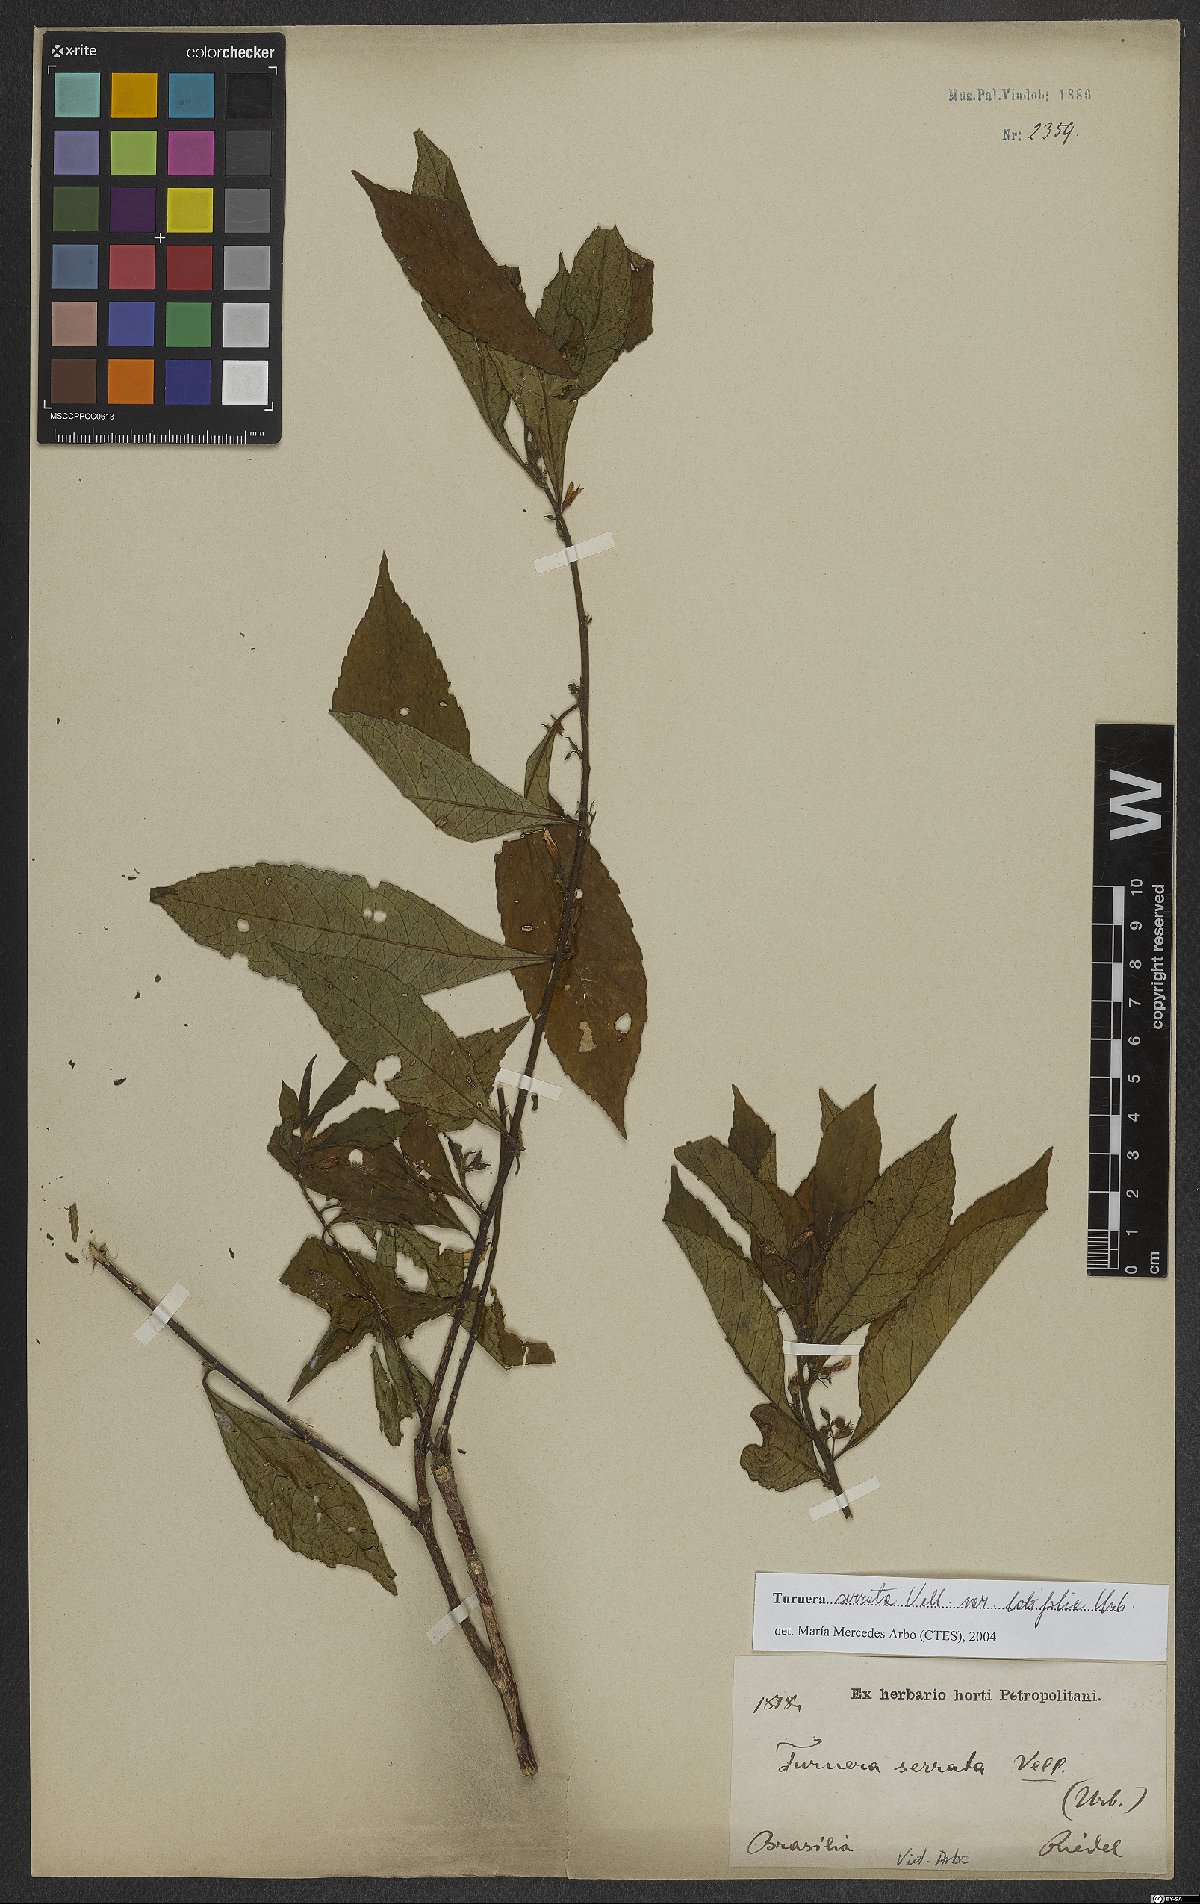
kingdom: Plantae
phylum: Tracheophyta
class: Magnoliopsida
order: Malpighiales
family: Turneraceae
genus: Turnera
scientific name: Turnera serrata
